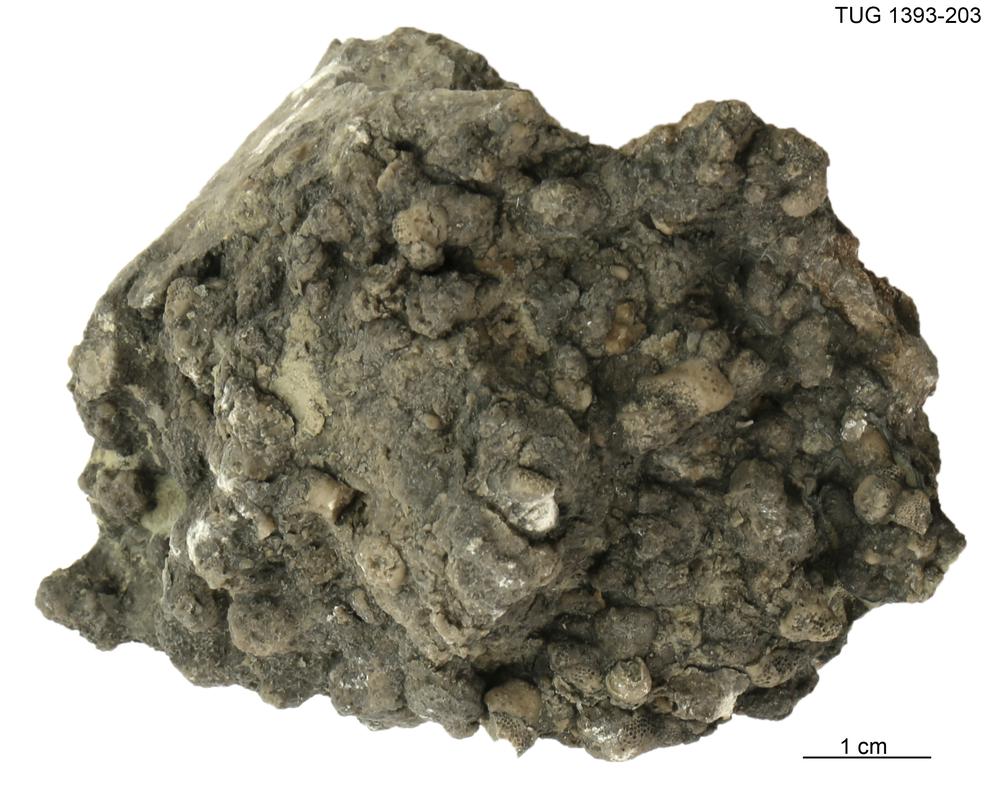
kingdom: Animalia
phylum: Bryozoa
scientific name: Bryozoa
